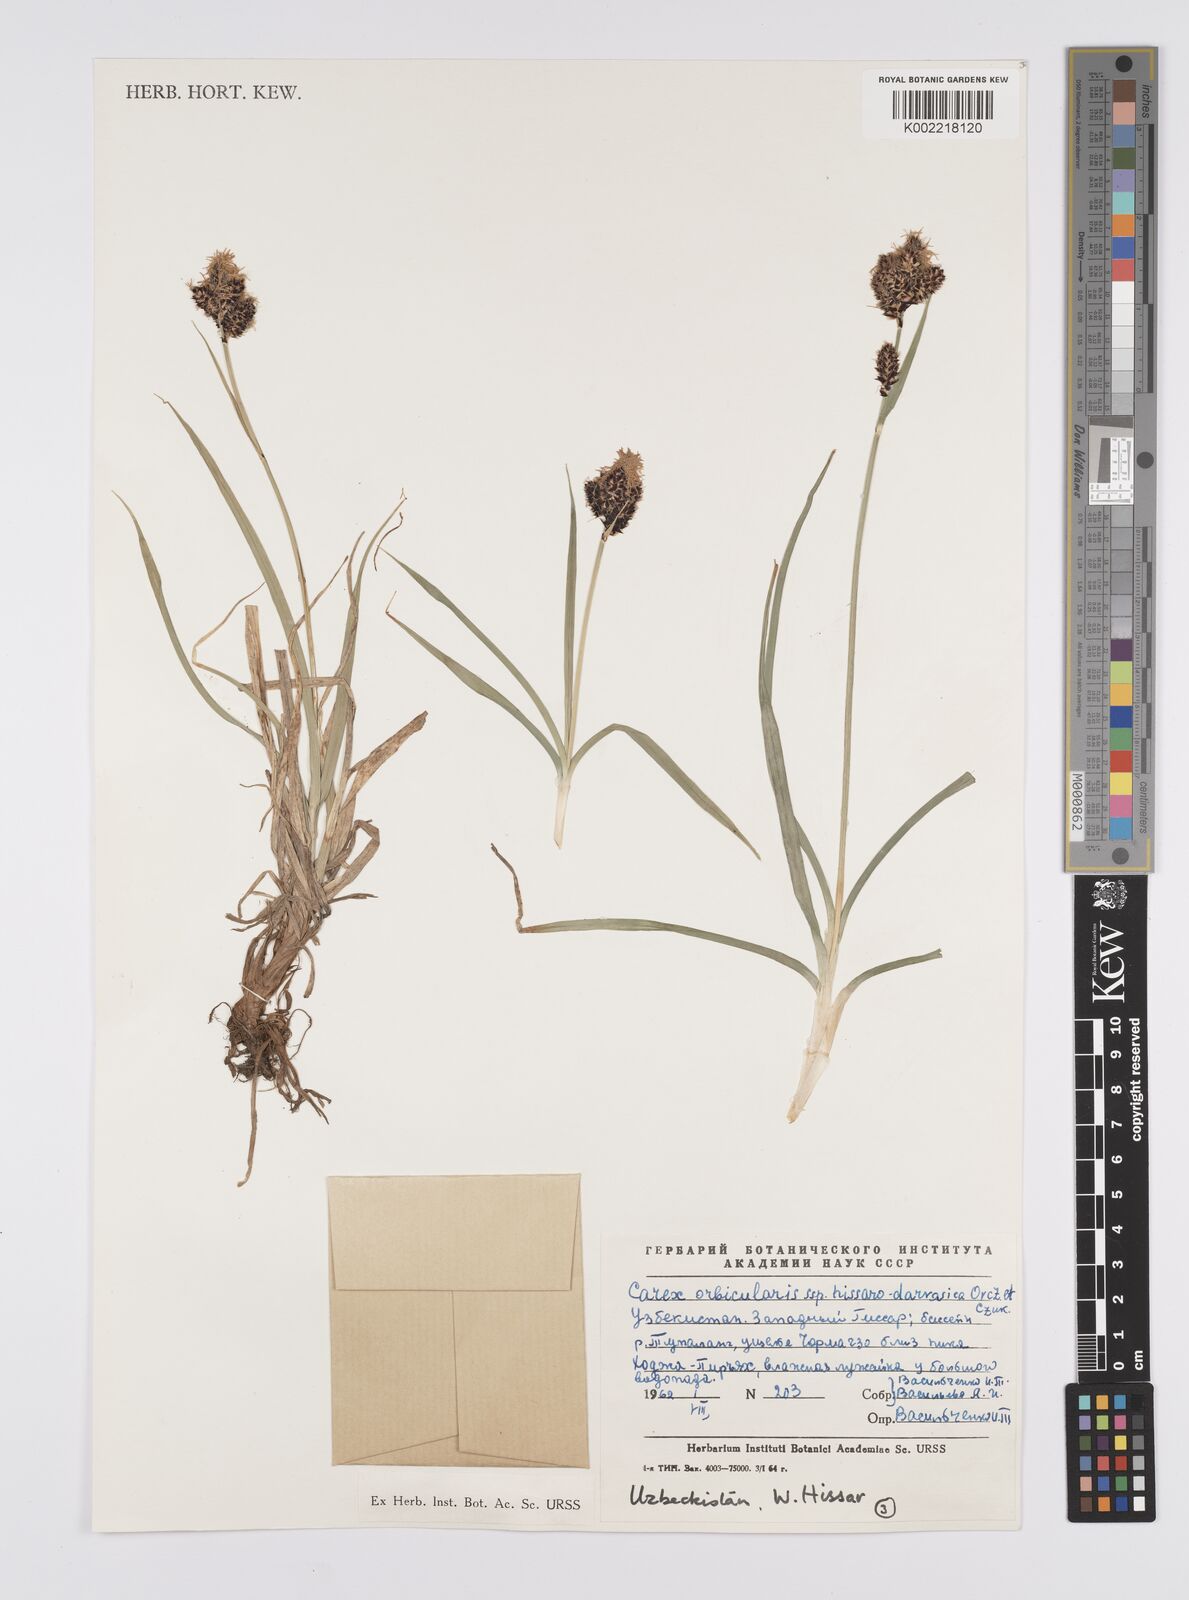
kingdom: Plantae
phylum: Tracheophyta
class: Liliopsida
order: Poales
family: Cyperaceae
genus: Carex
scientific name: Carex orbicularis
